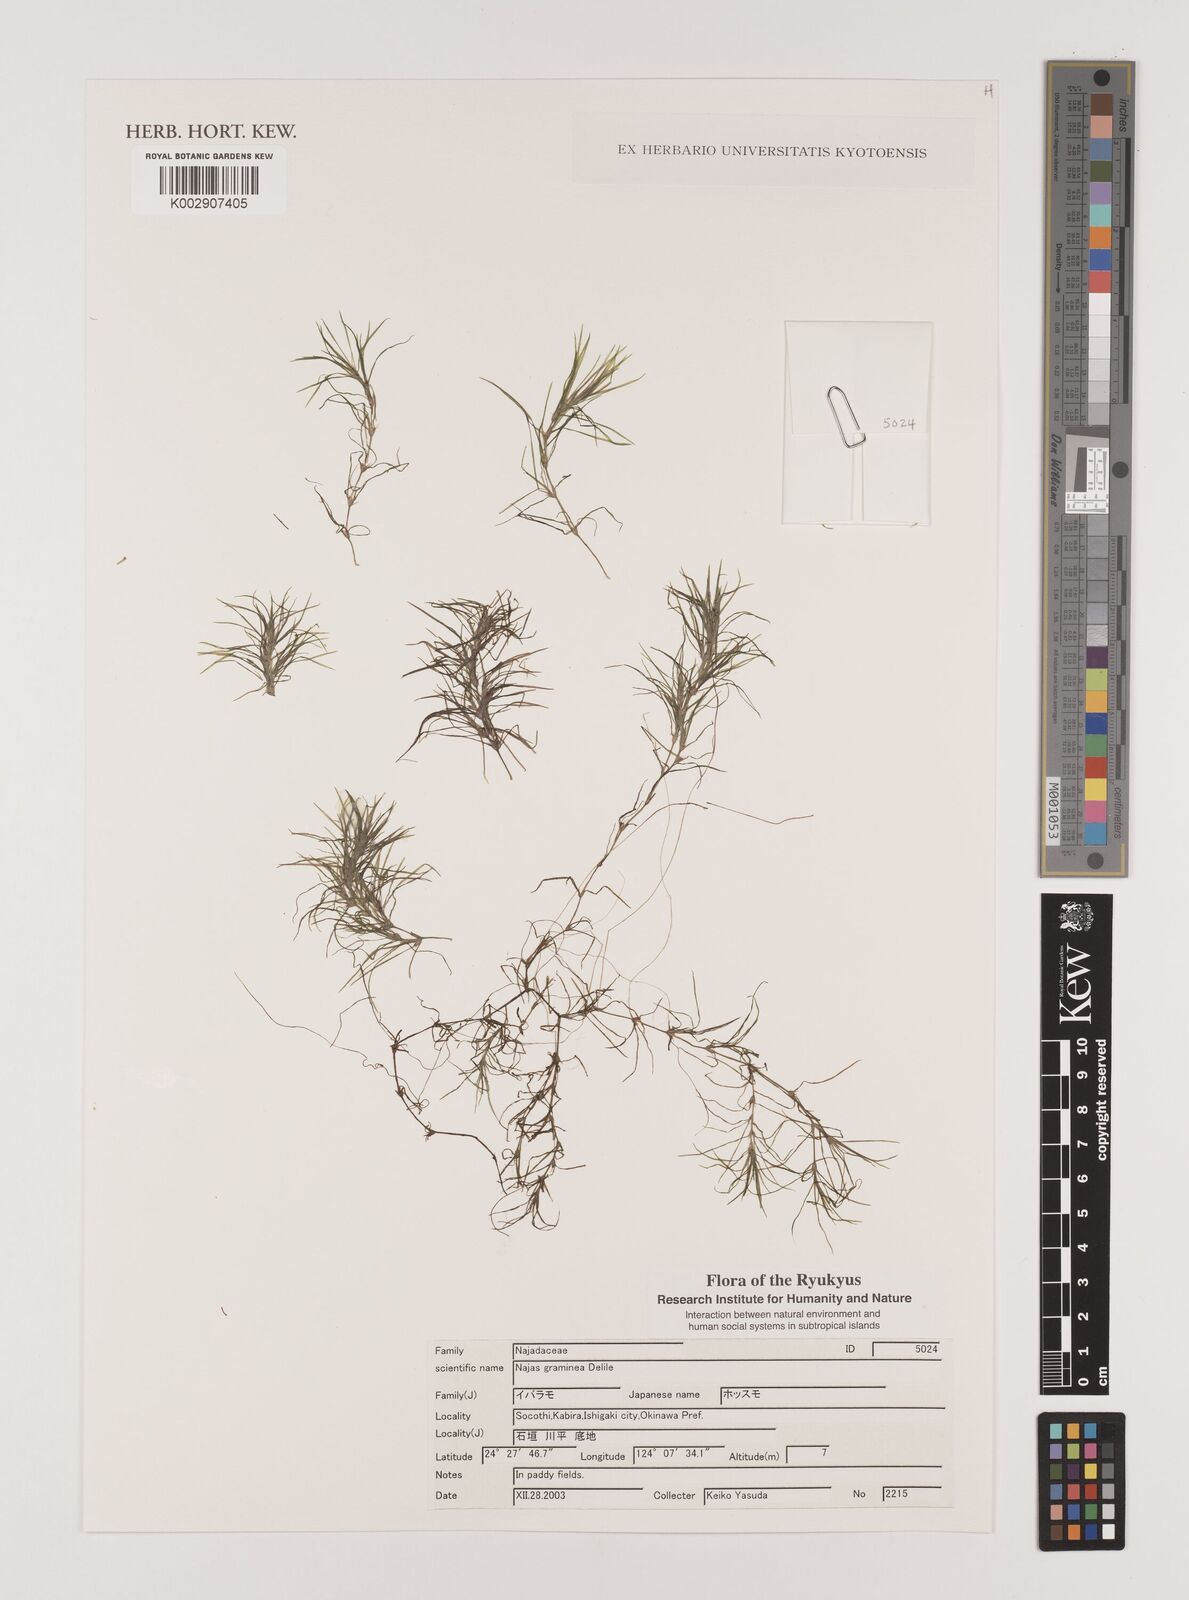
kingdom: Plantae
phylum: Tracheophyta
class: Liliopsida
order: Alismatales
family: Hydrocharitaceae
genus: Najas
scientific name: Najas graminea
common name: Ricefield waternymph
